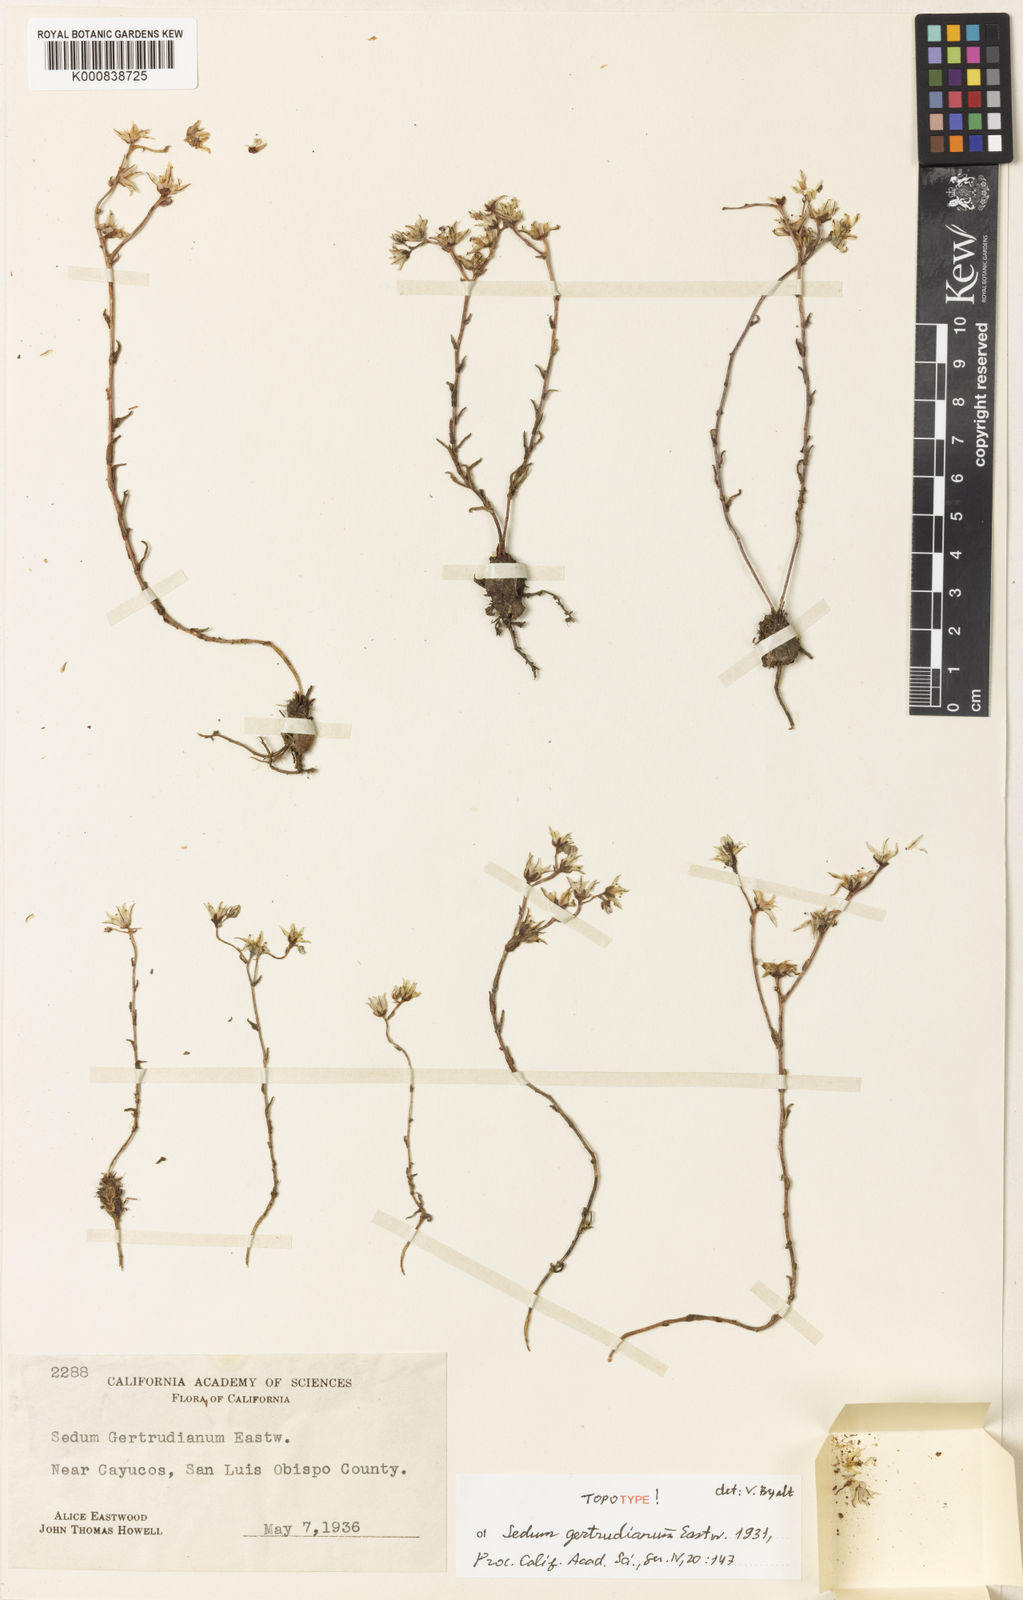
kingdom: Plantae
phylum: Tracheophyta
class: Magnoliopsida
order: Saxifragales
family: Crassulaceae
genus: Dudleya
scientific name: Dudleya blochmaniae
